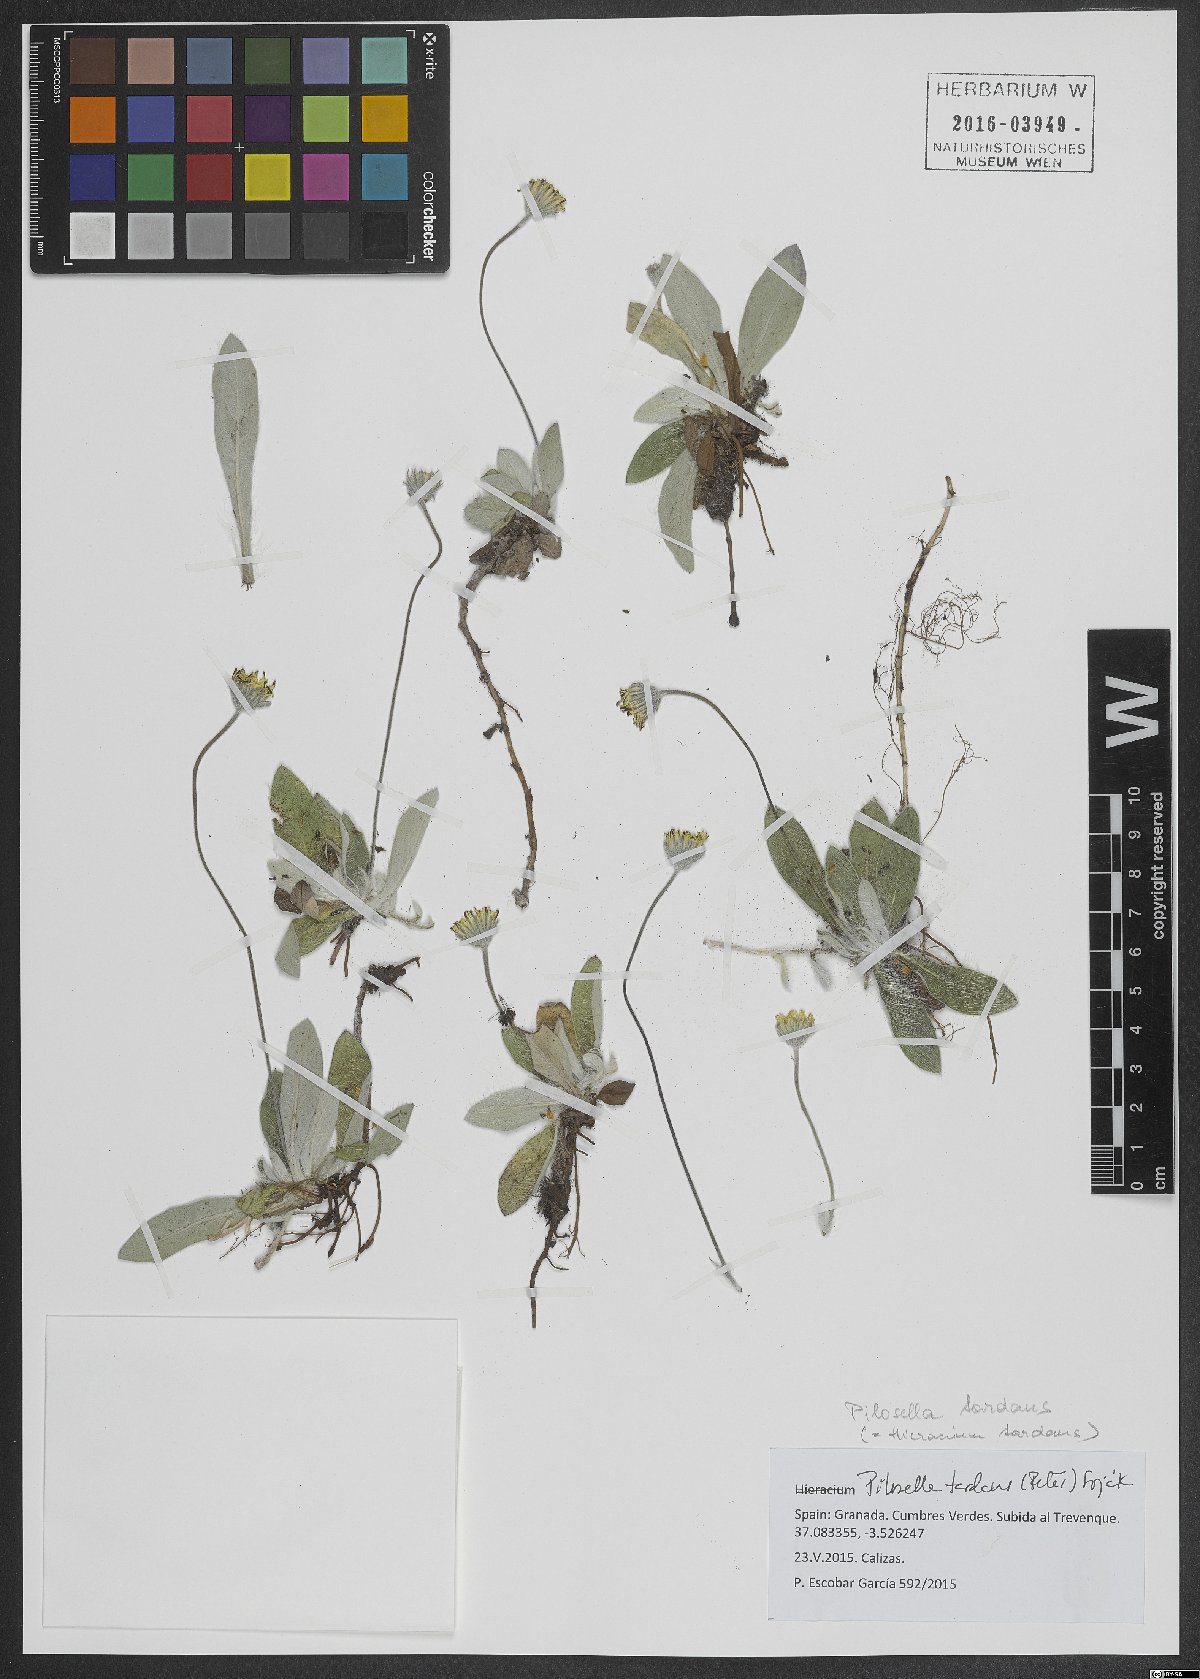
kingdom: Plantae
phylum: Tracheophyta
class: Magnoliopsida
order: Asterales
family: Asteraceae
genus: Pilosella
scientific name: Pilosella tardans
